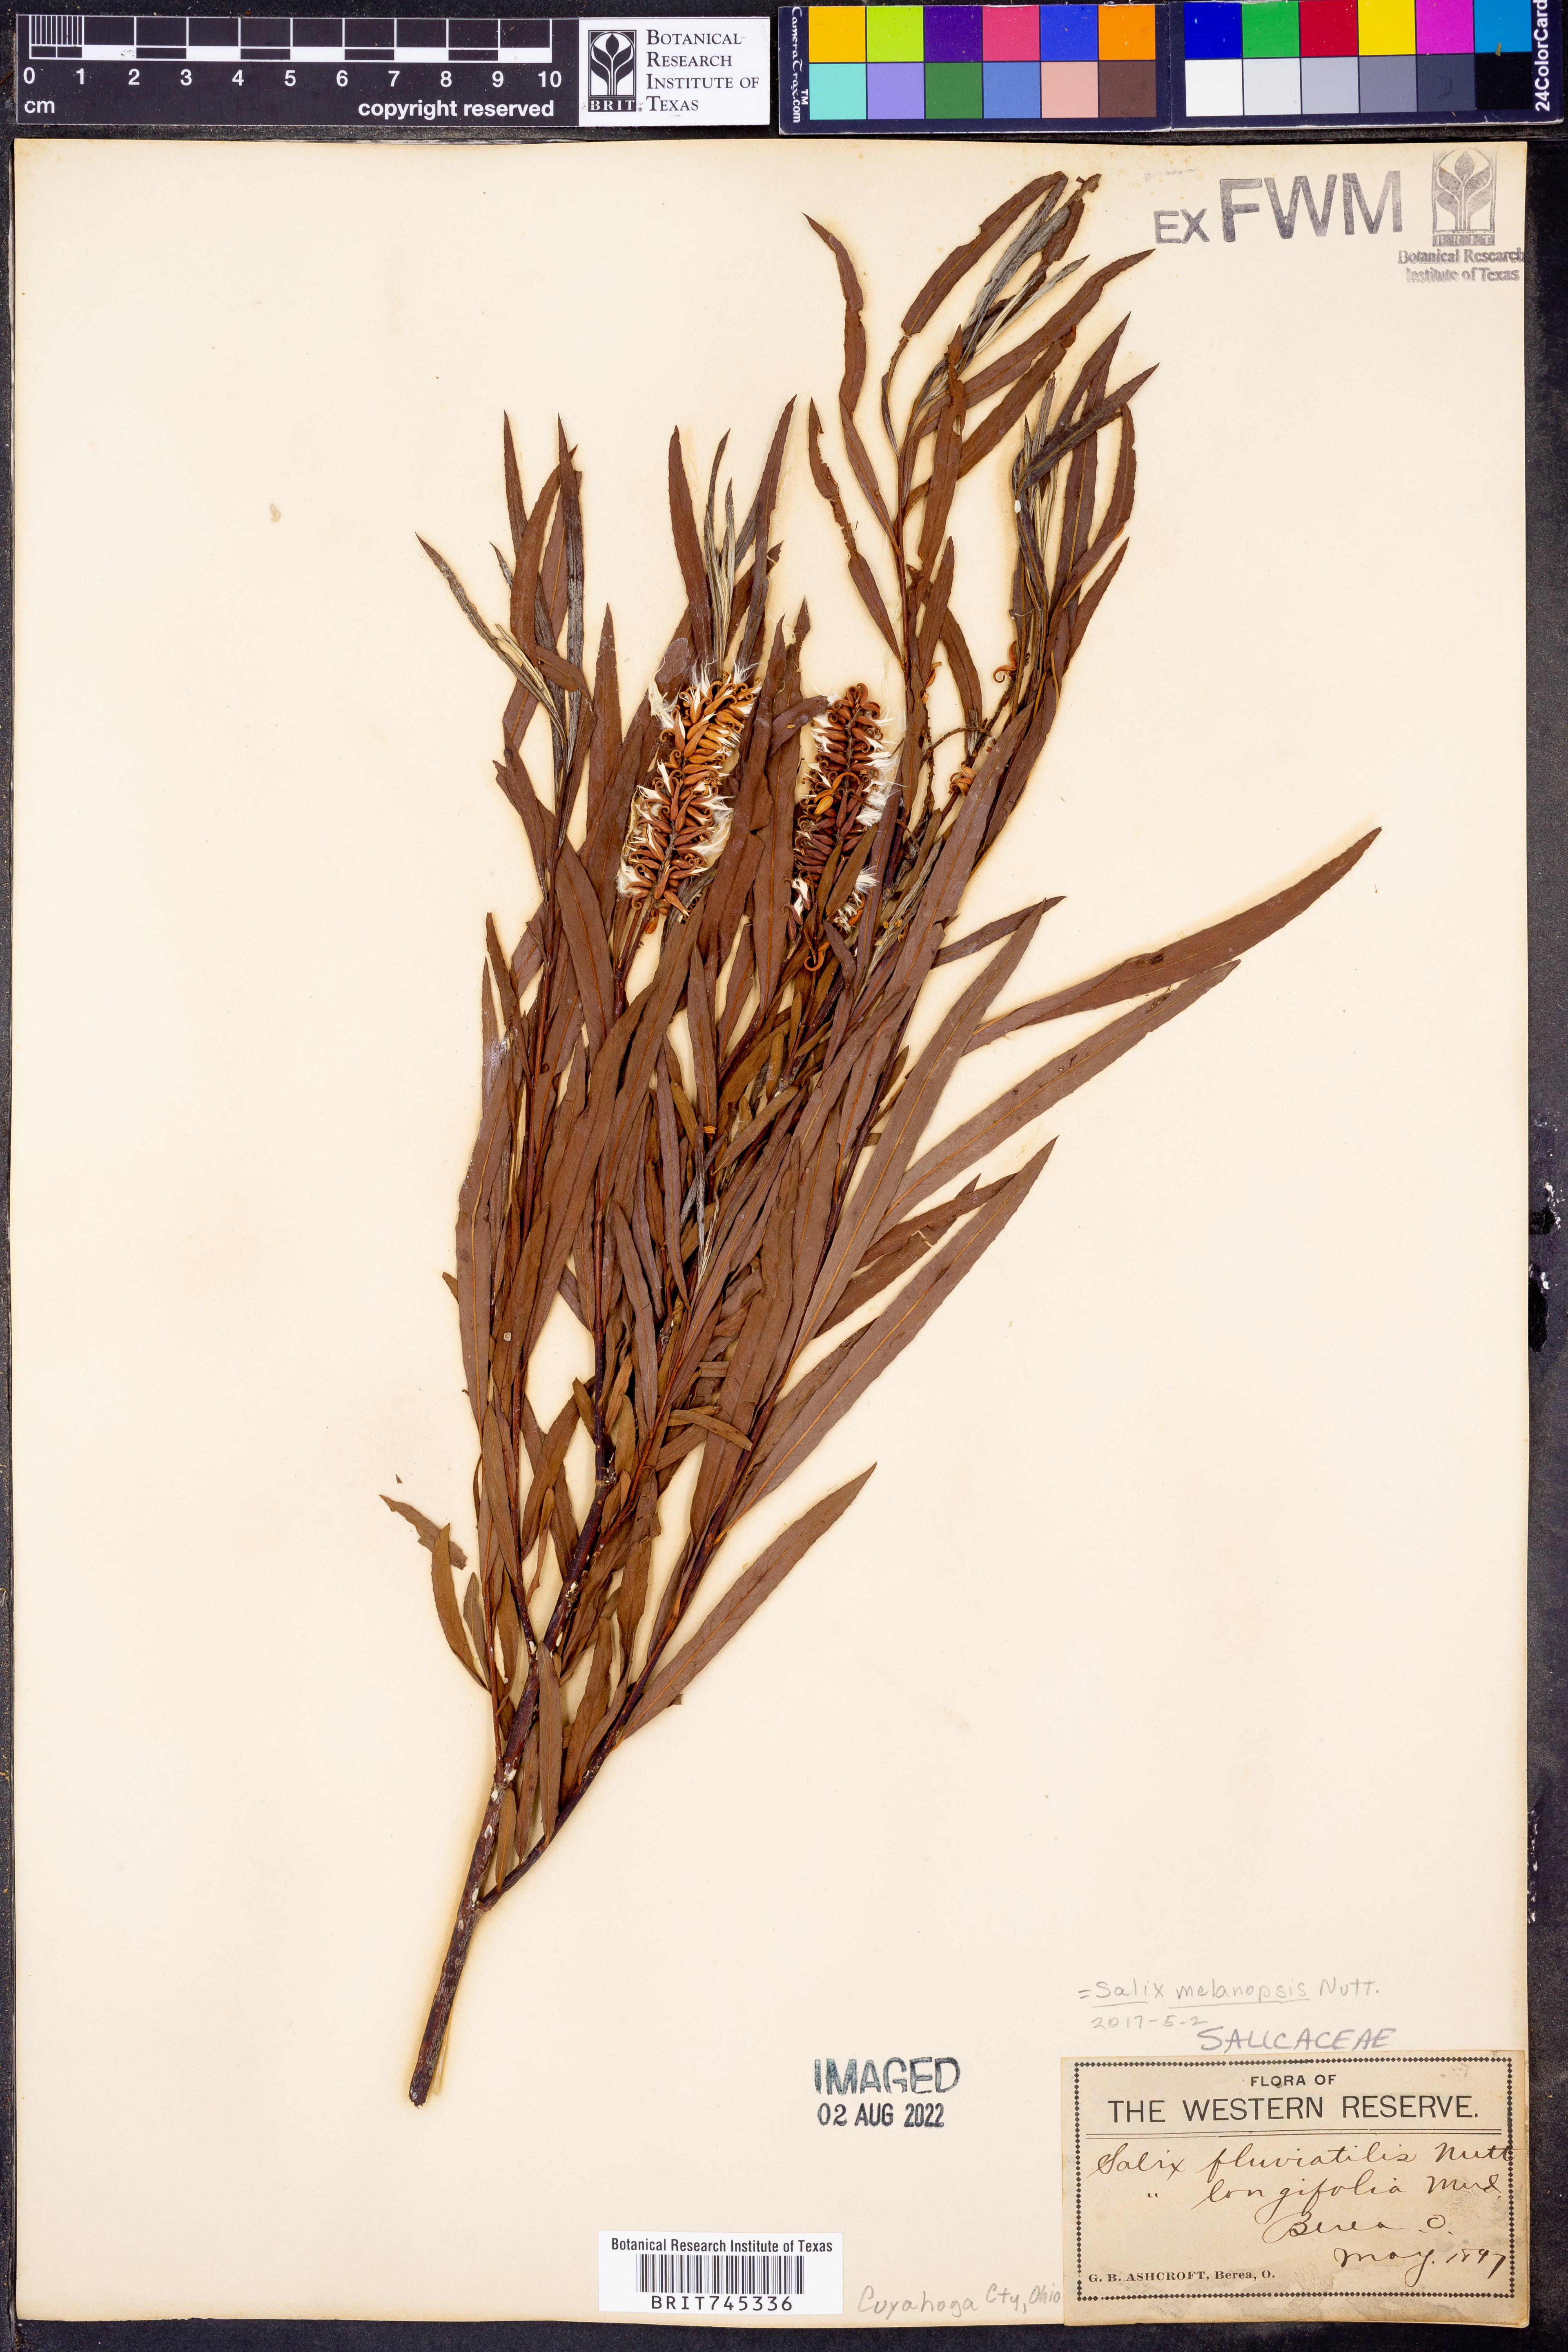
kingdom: Plantae
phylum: Tracheophyta
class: Magnoliopsida
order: Malpighiales
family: Salicaceae
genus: Salix
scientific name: Salix
